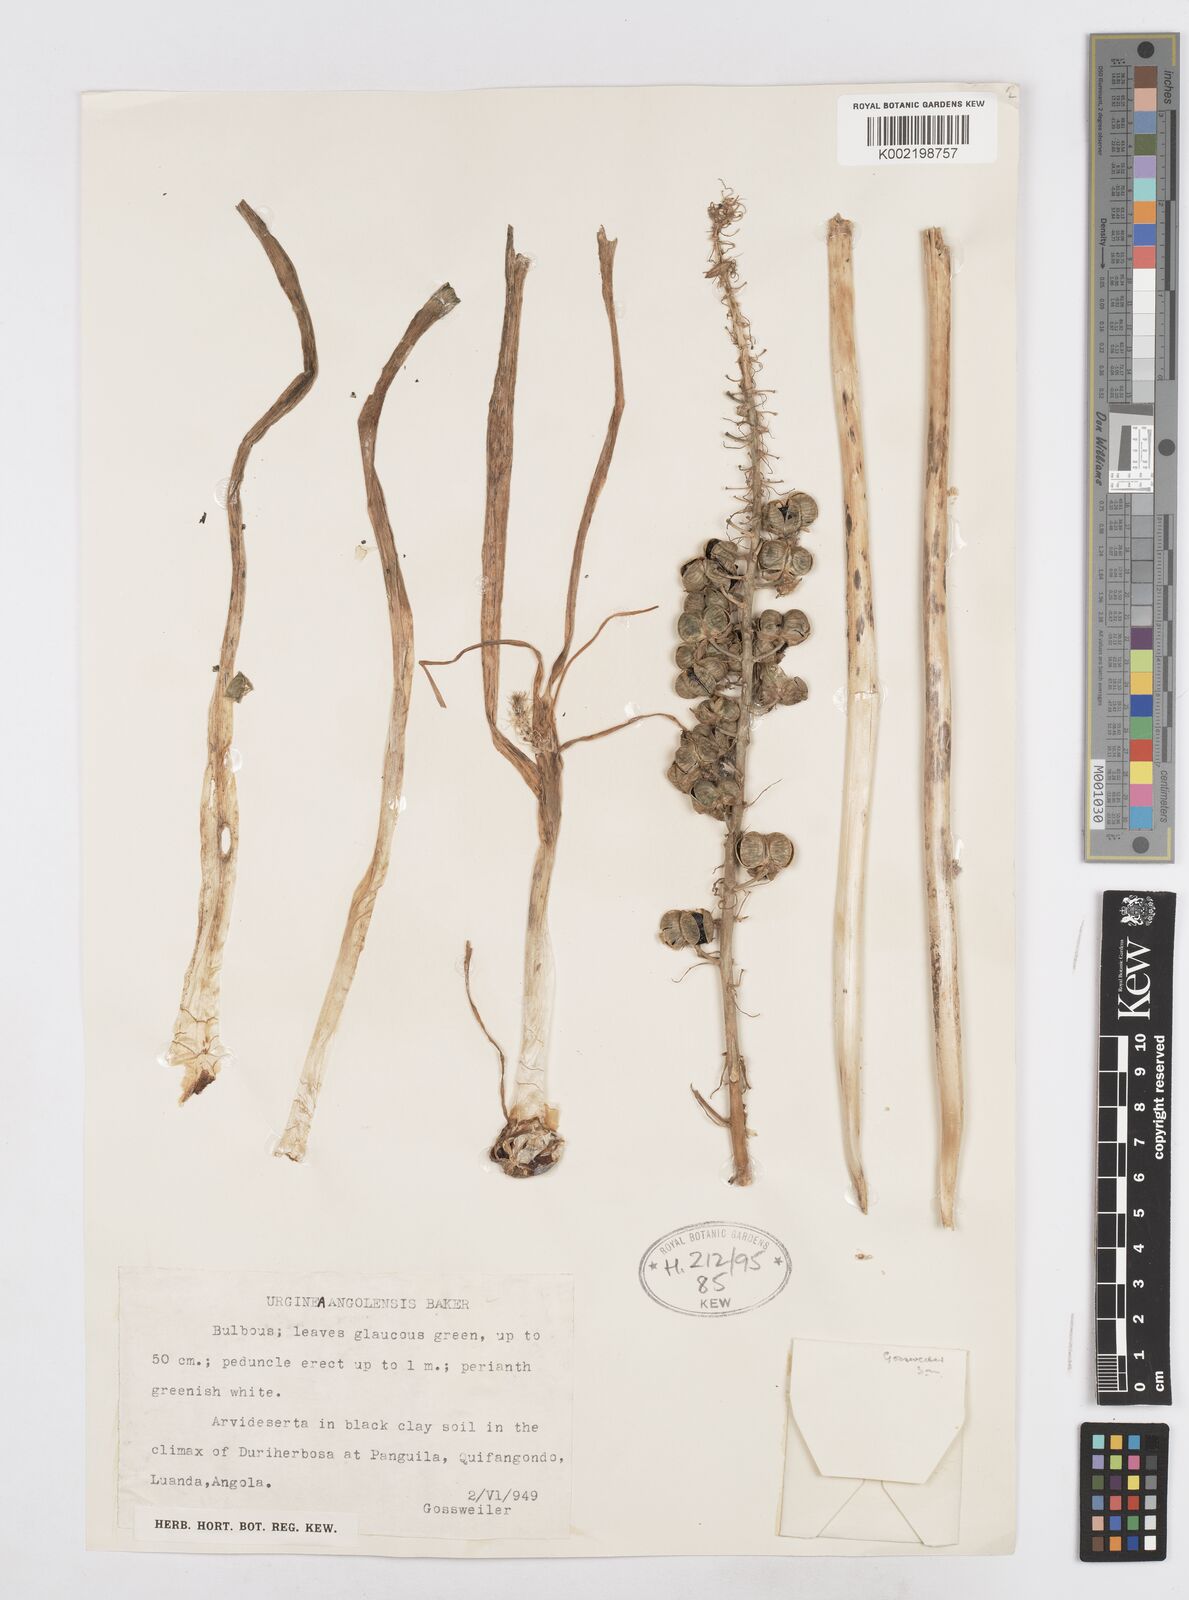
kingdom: Plantae
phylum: Tracheophyta
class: Liliopsida
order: Asparagales
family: Asparagaceae
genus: Drimia
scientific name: Drimia
